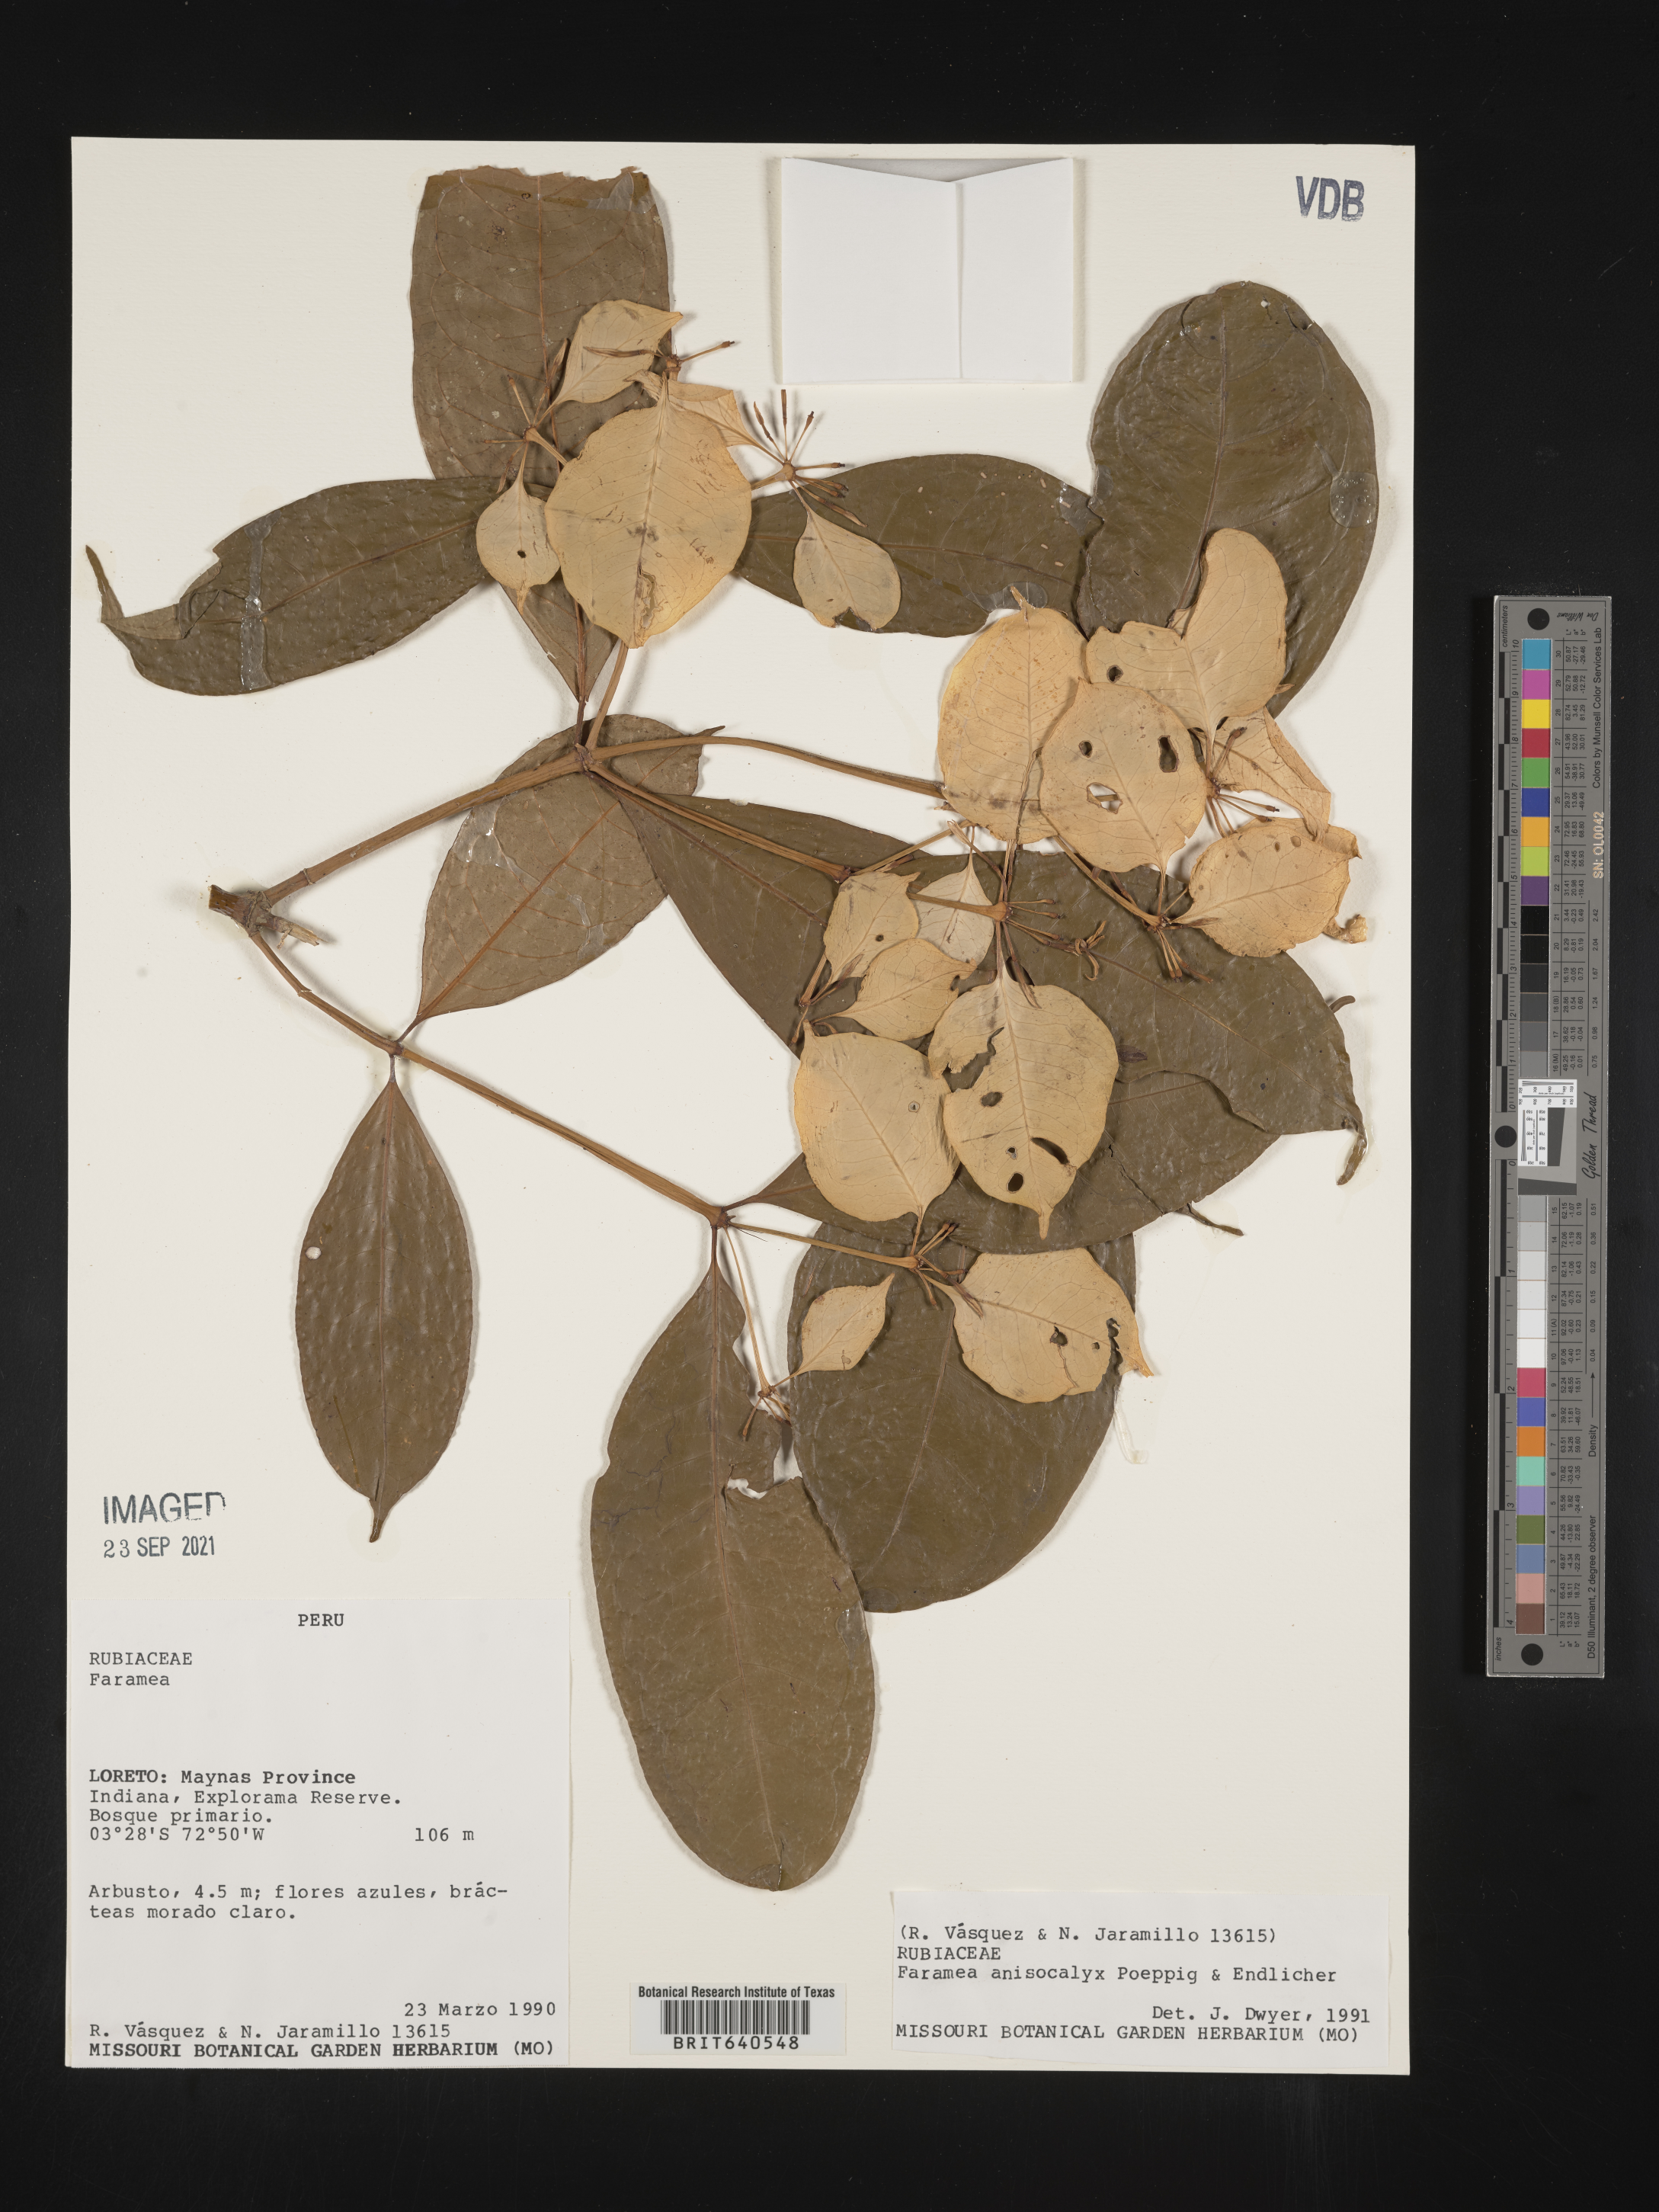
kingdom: Plantae
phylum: Tracheophyta
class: Magnoliopsida
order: Gentianales
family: Rubiaceae
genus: Faramea
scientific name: Faramea
